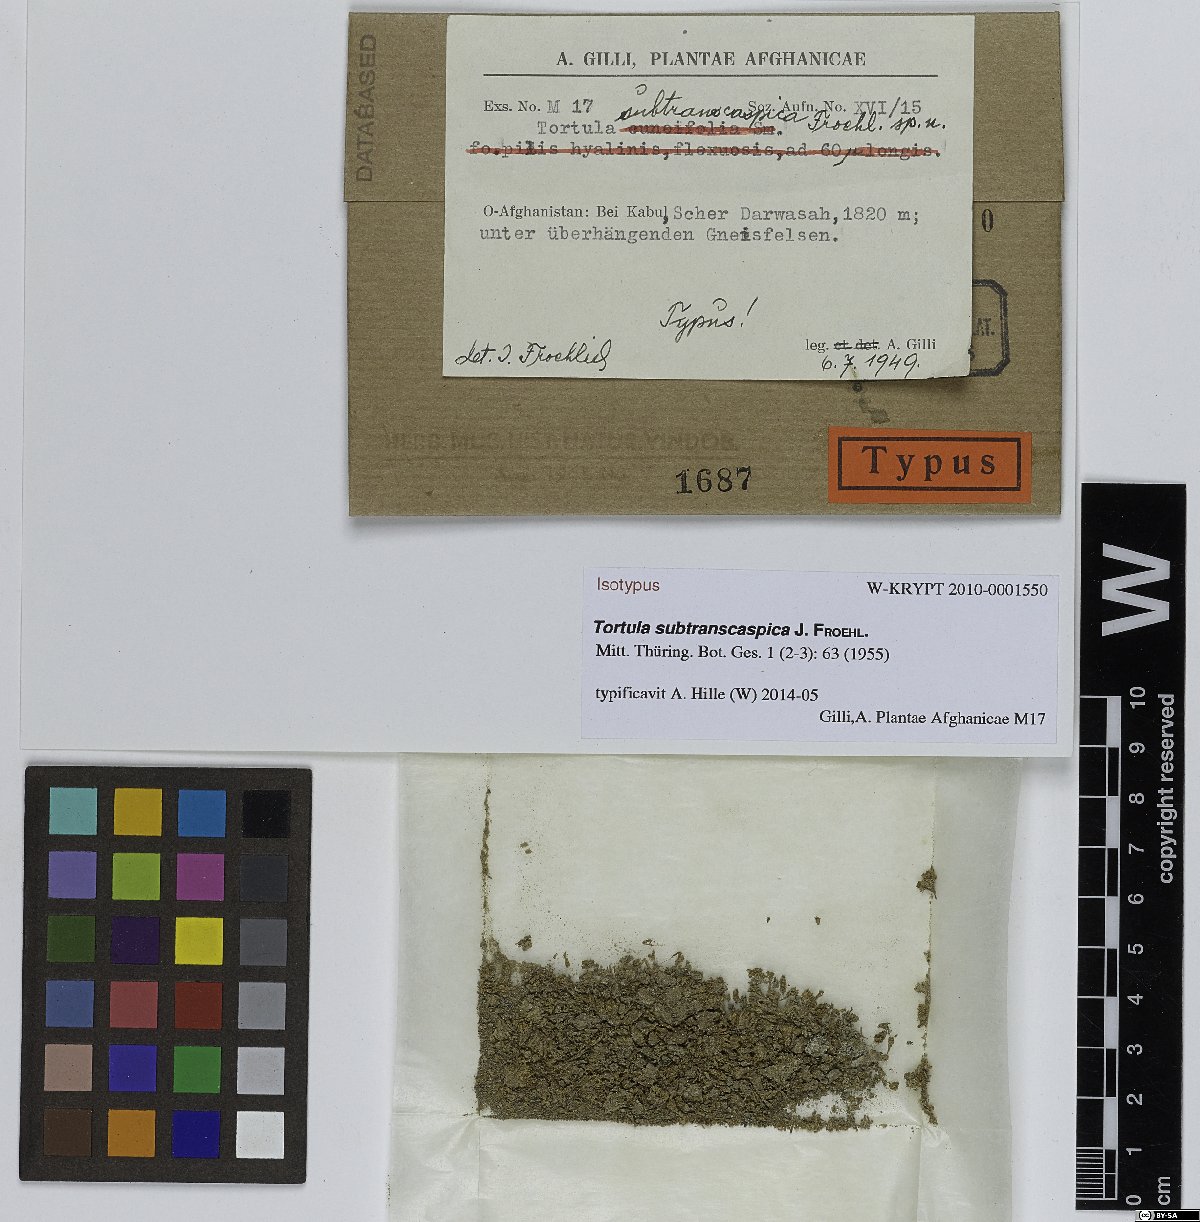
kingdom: Plantae
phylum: Bryophyta
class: Bryopsida
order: Pottiales
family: Pottiaceae
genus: Tortula
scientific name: Tortula subtranscaspica
